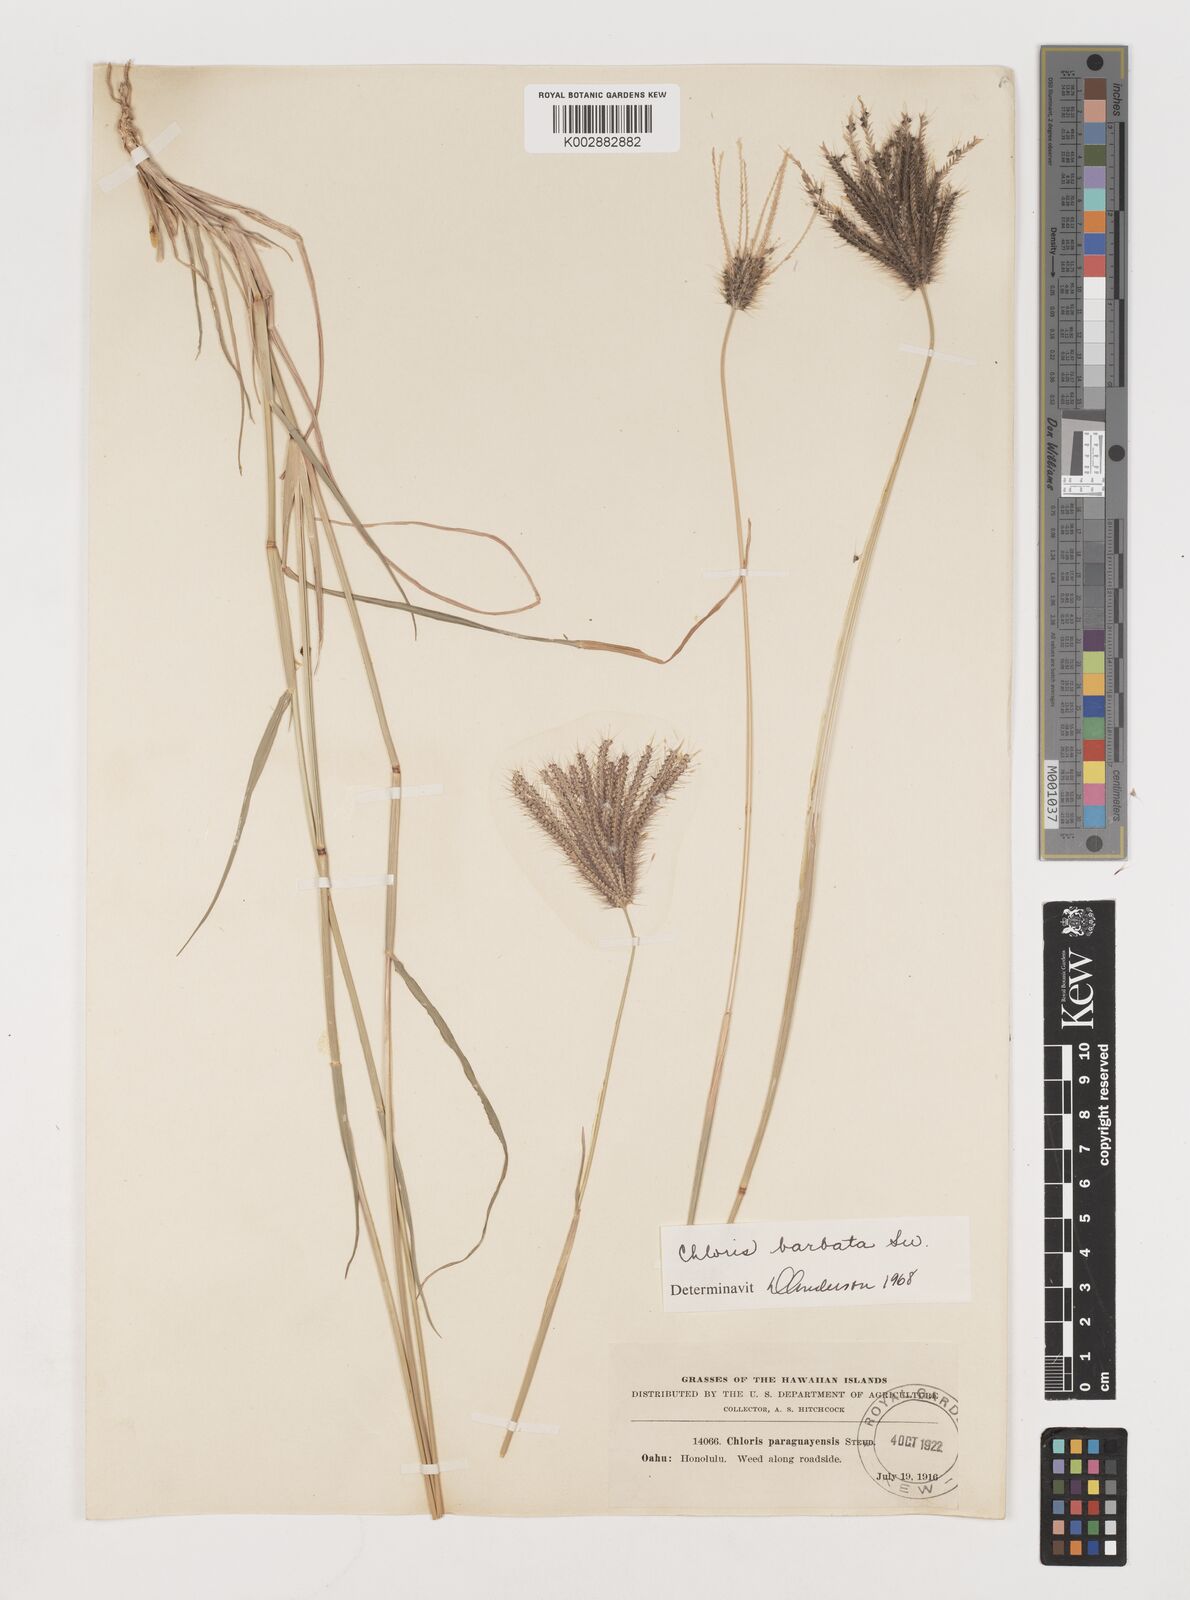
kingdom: Plantae
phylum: Tracheophyta
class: Liliopsida
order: Poales
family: Poaceae
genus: Chloris
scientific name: Chloris barbata
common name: Swollen fingergrass
